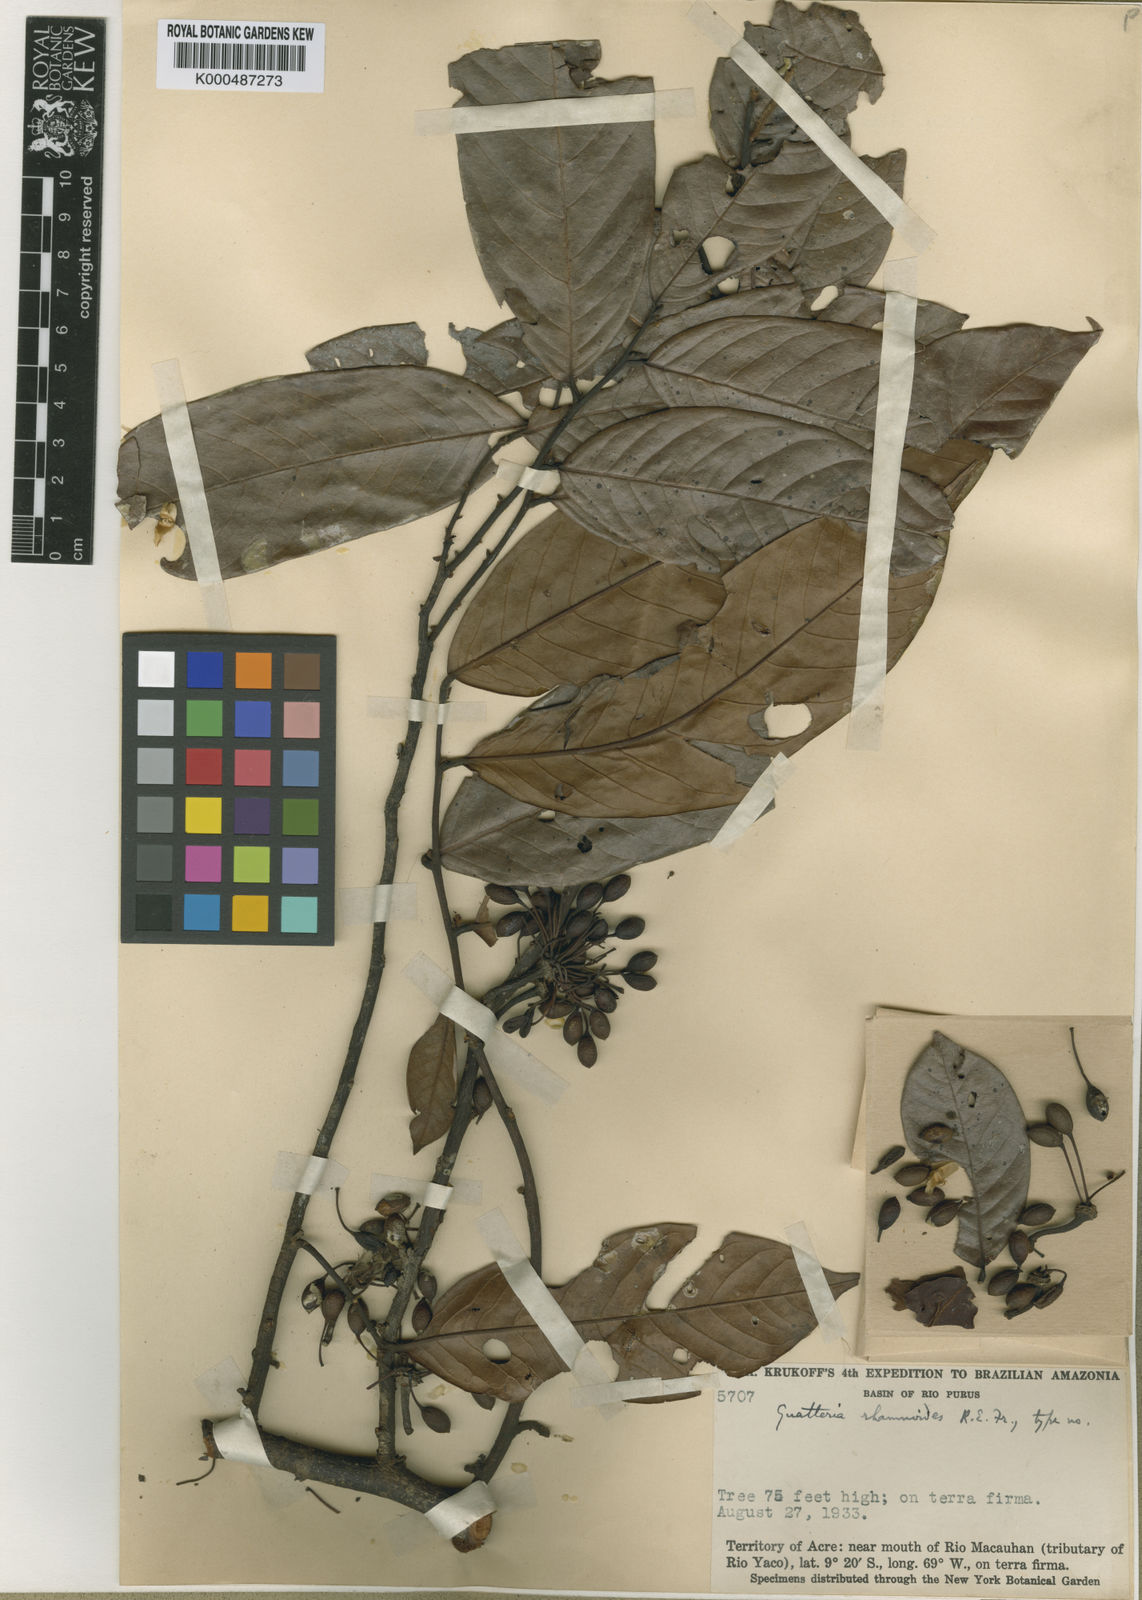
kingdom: Plantae
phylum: Tracheophyta
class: Magnoliopsida
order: Magnoliales
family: Annonaceae
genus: Guatteria
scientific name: Guatteria punctata
